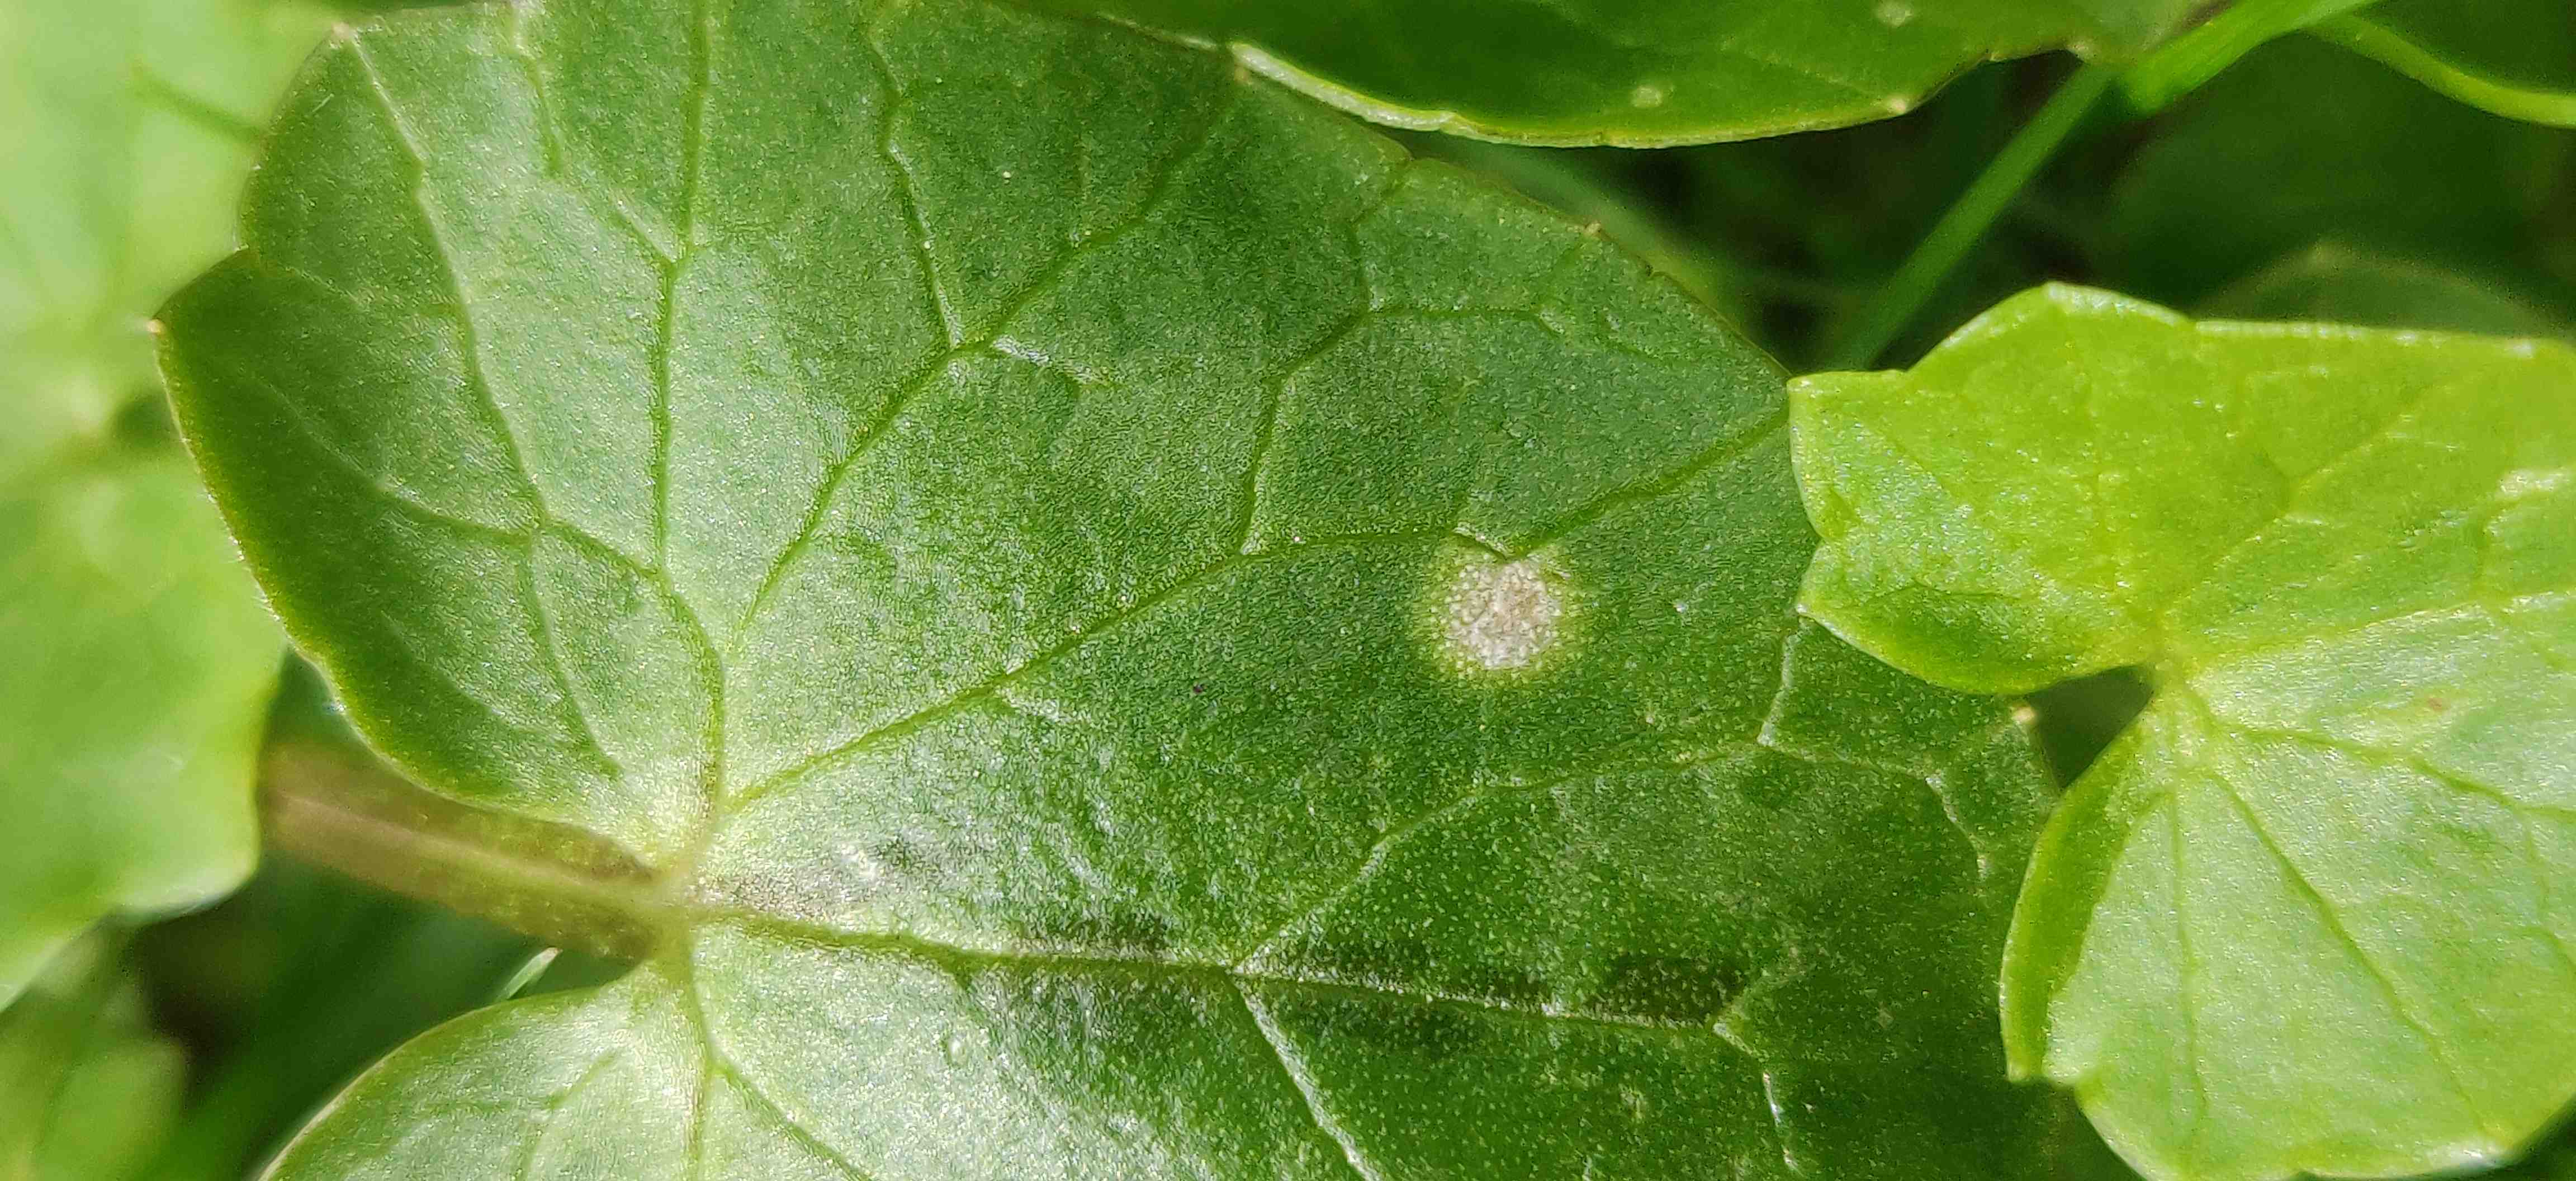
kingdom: Fungi
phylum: Basidiomycota
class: Exobasidiomycetes
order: Entylomatales
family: Entylomataceae
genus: Entyloma
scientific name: Entyloma ficariae
